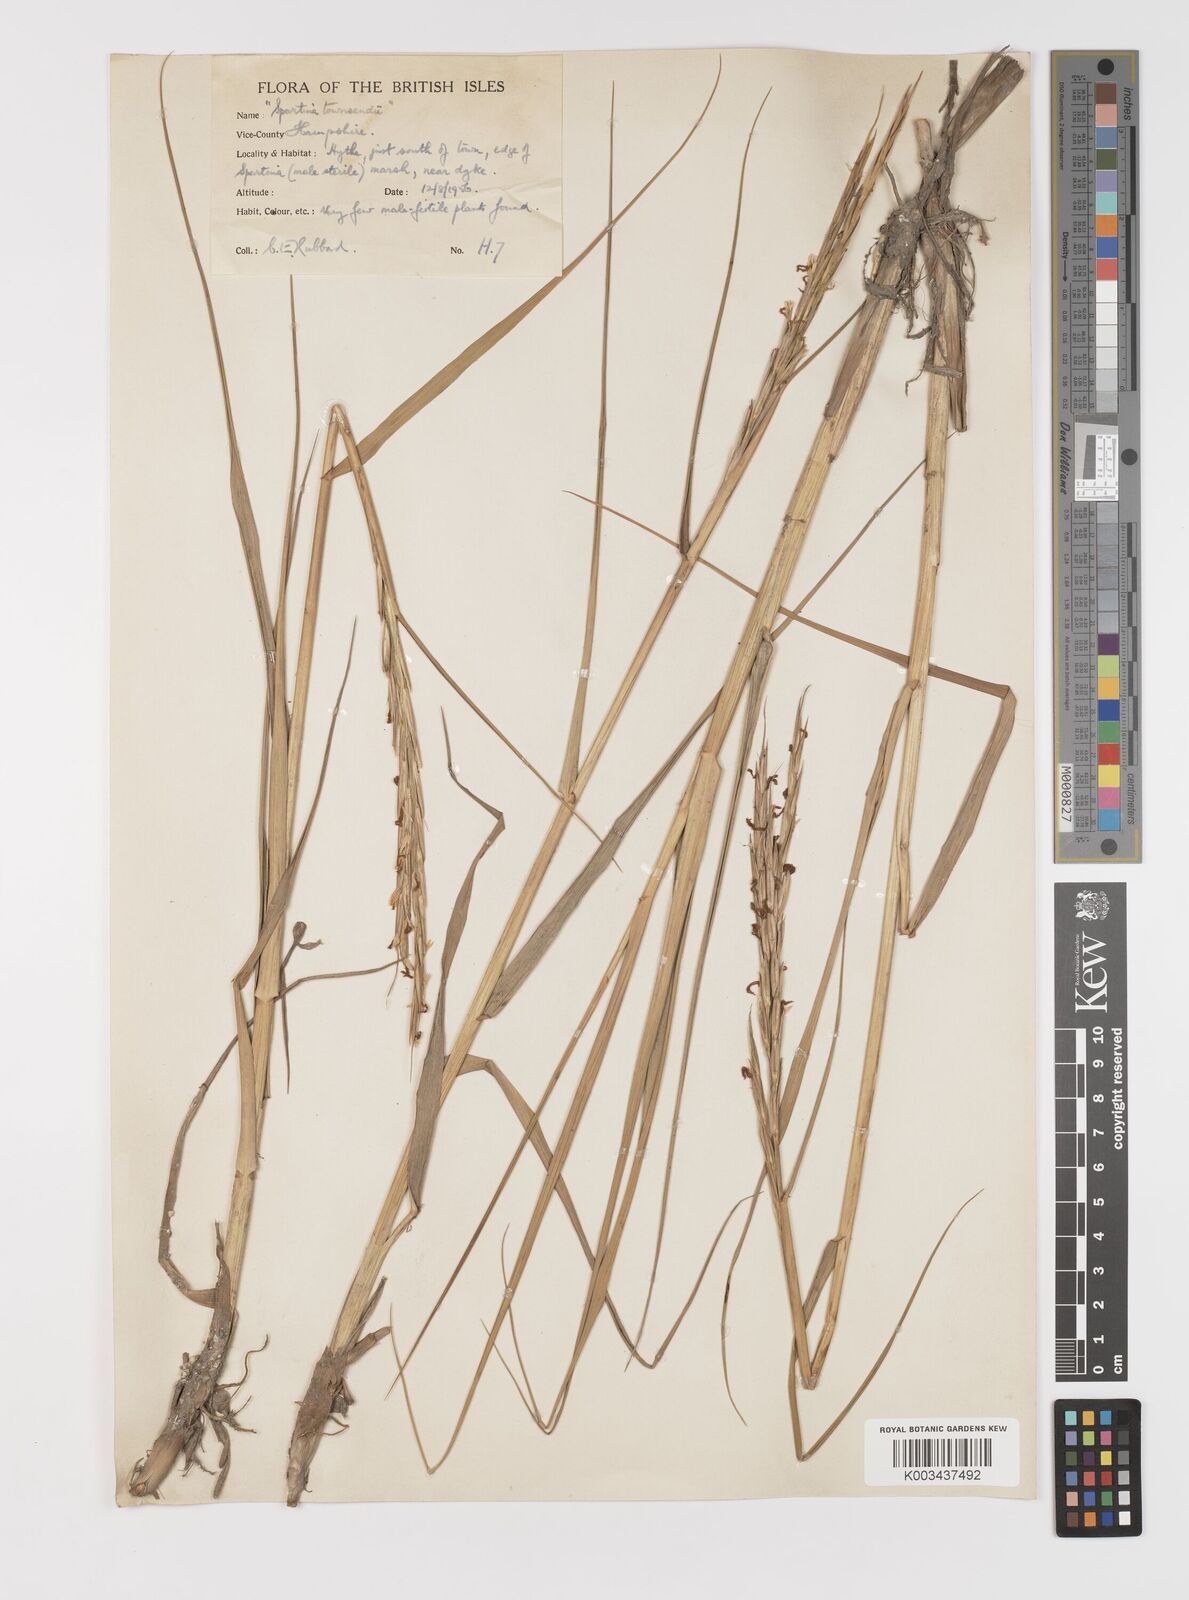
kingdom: Plantae
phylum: Tracheophyta
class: Liliopsida
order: Poales
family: Poaceae
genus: Sporobolus
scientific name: Sporobolus anglicus
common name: English cordgrass
